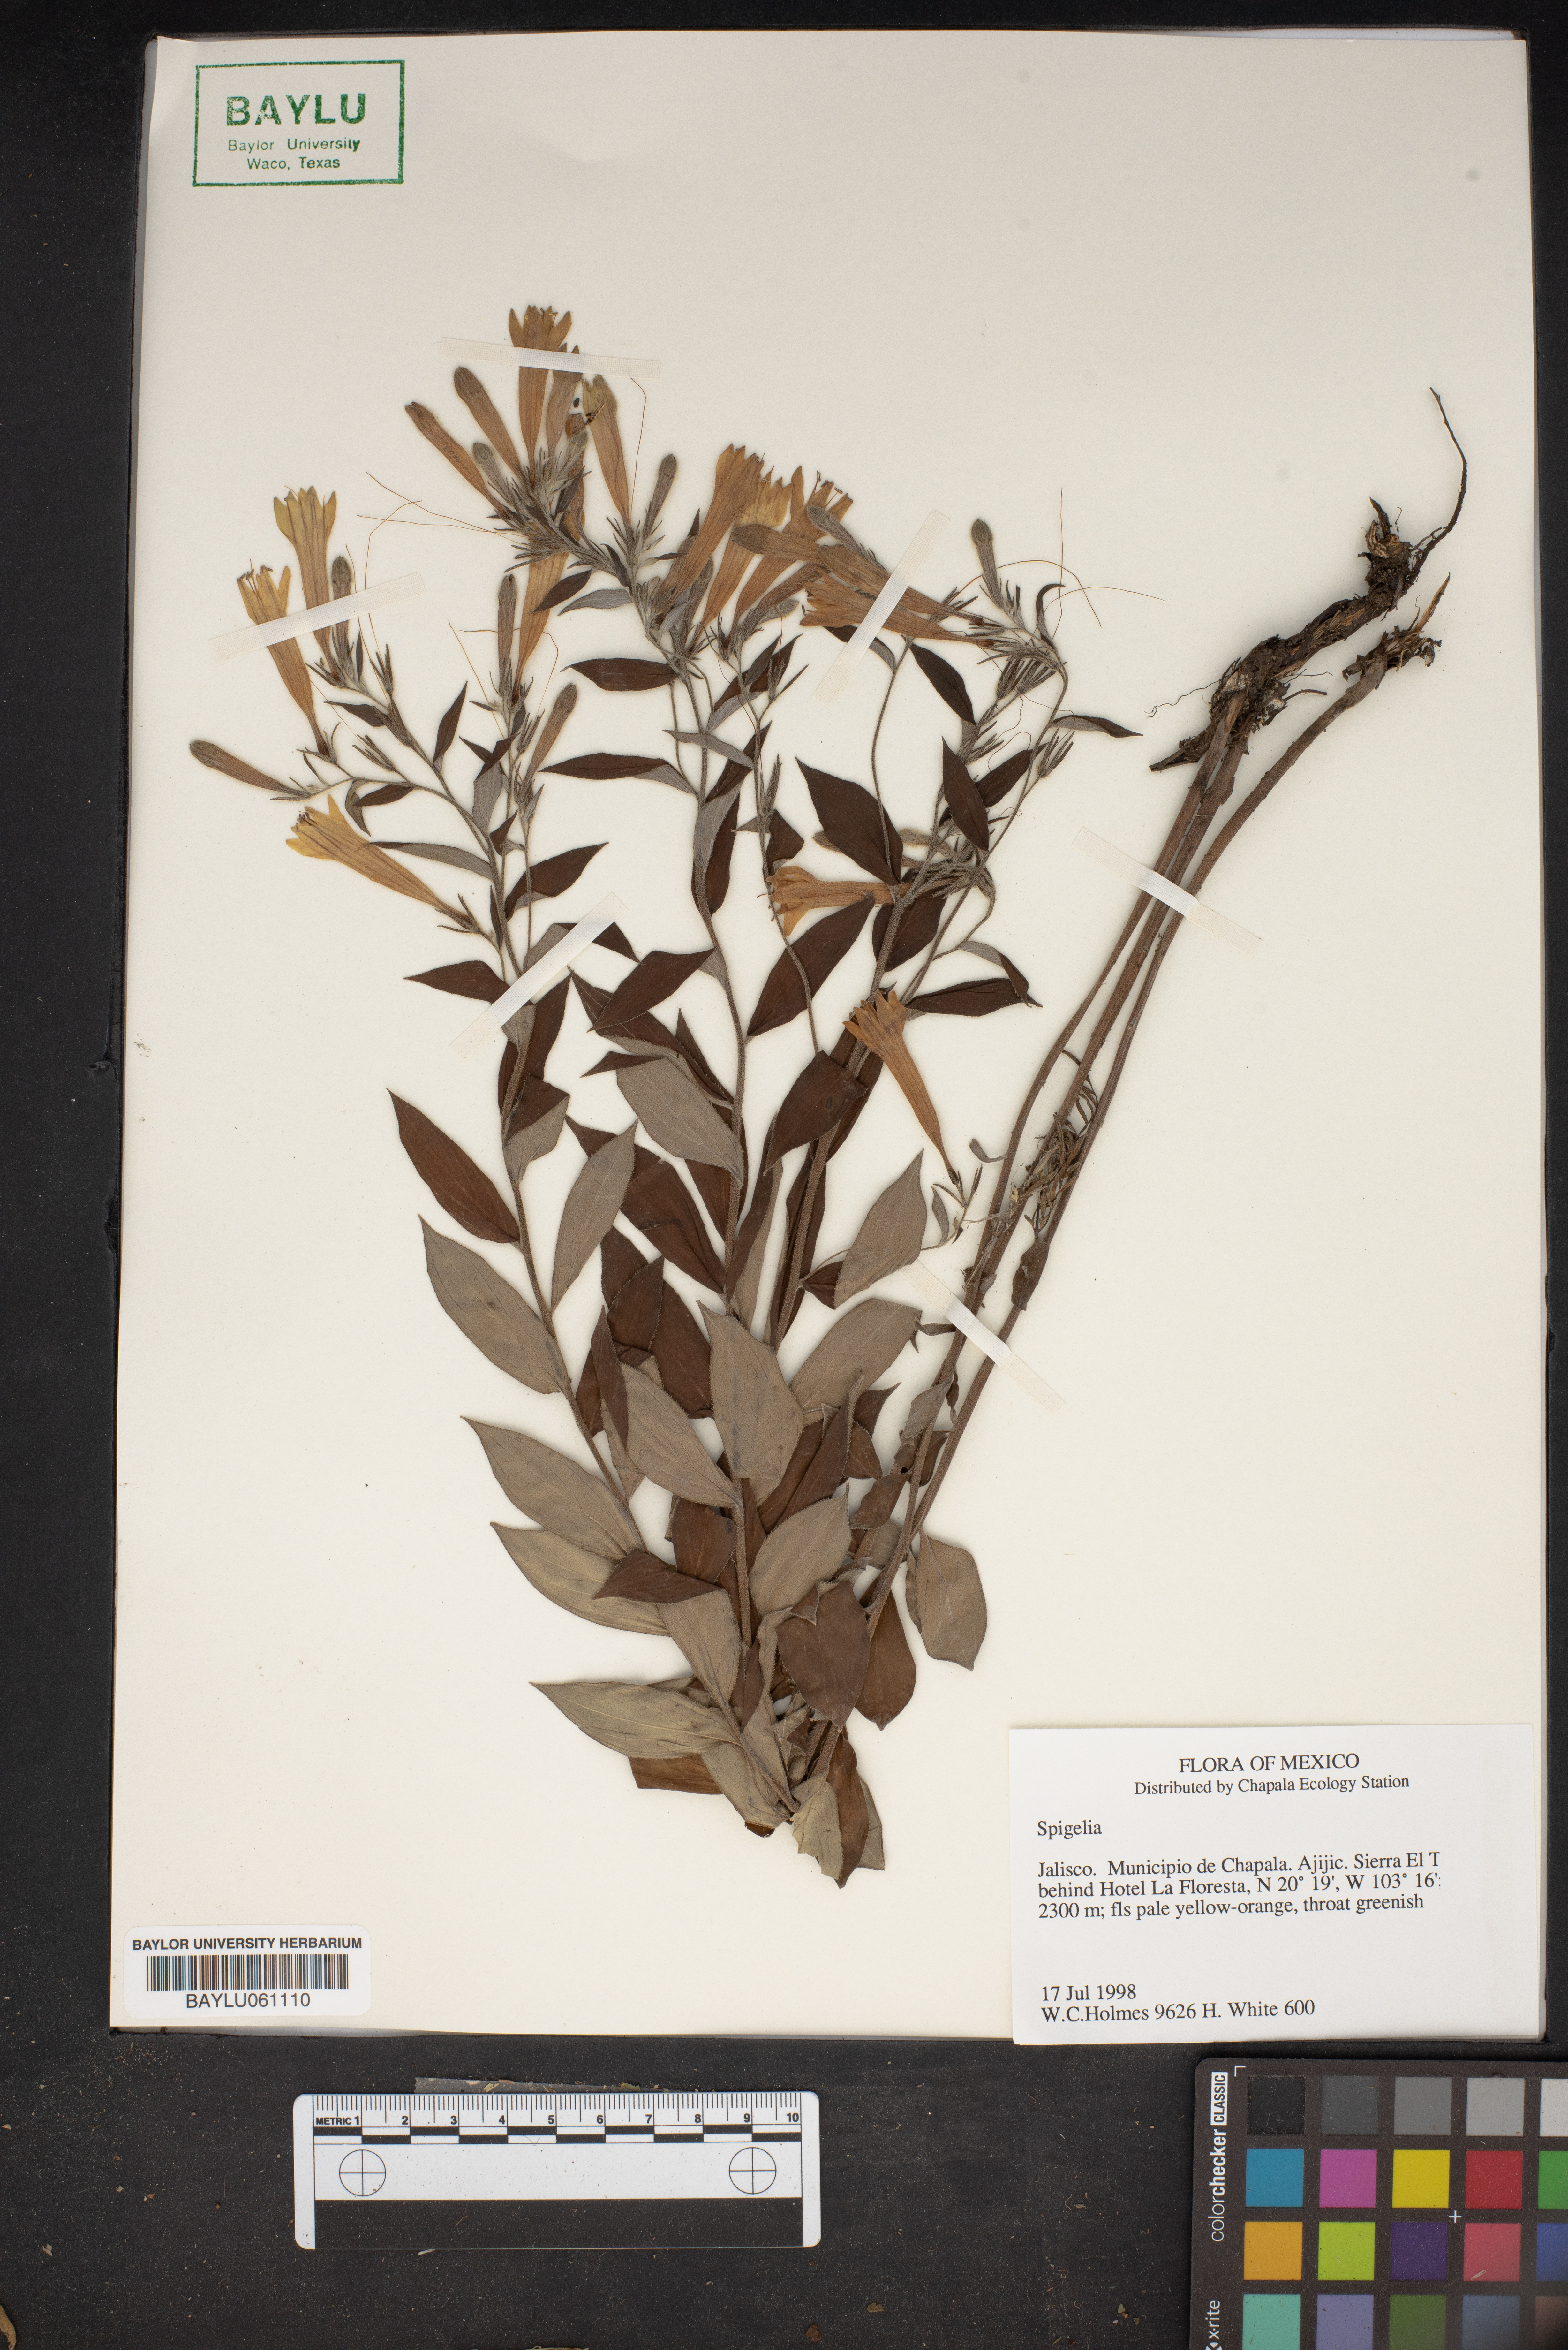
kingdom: Plantae
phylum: Tracheophyta
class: Magnoliopsida
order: Gentianales
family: Loganiaceae
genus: Spigelia
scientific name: Spigelia
